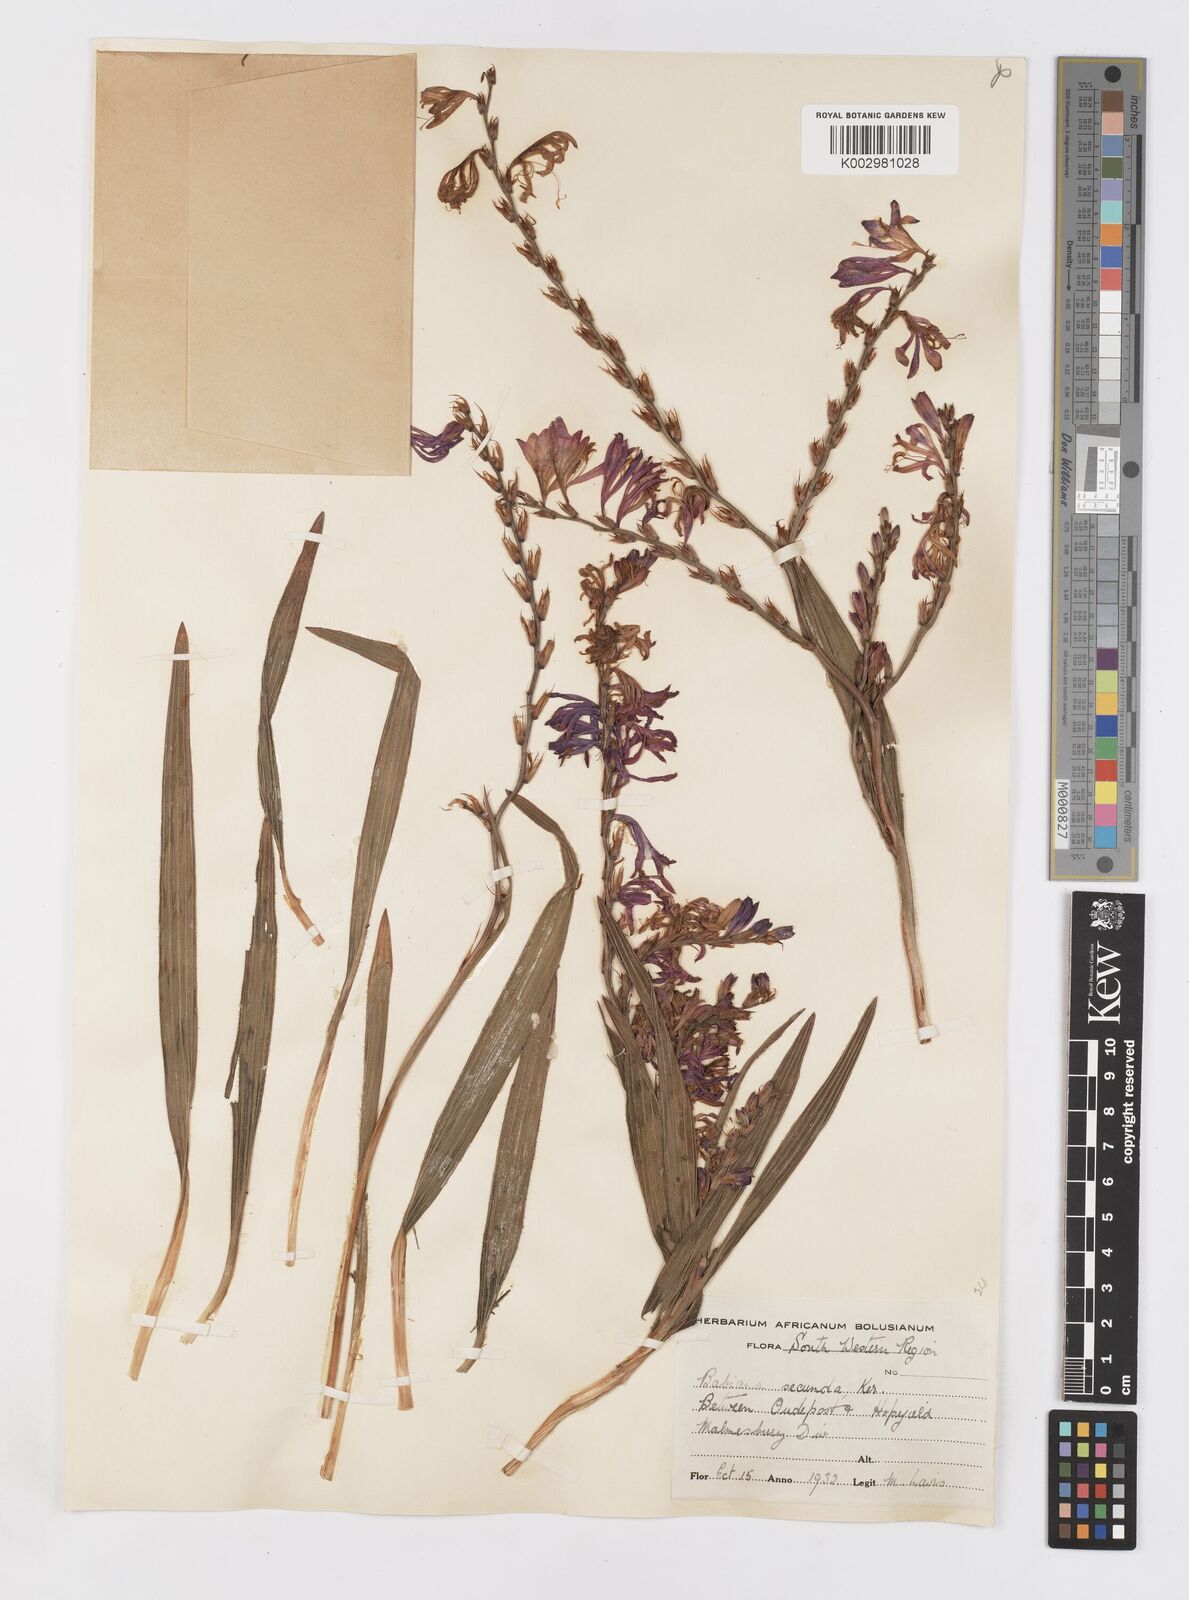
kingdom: Plantae
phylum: Tracheophyta
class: Liliopsida
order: Asparagales
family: Iridaceae
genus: Babiana
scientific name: Babiana secunda
